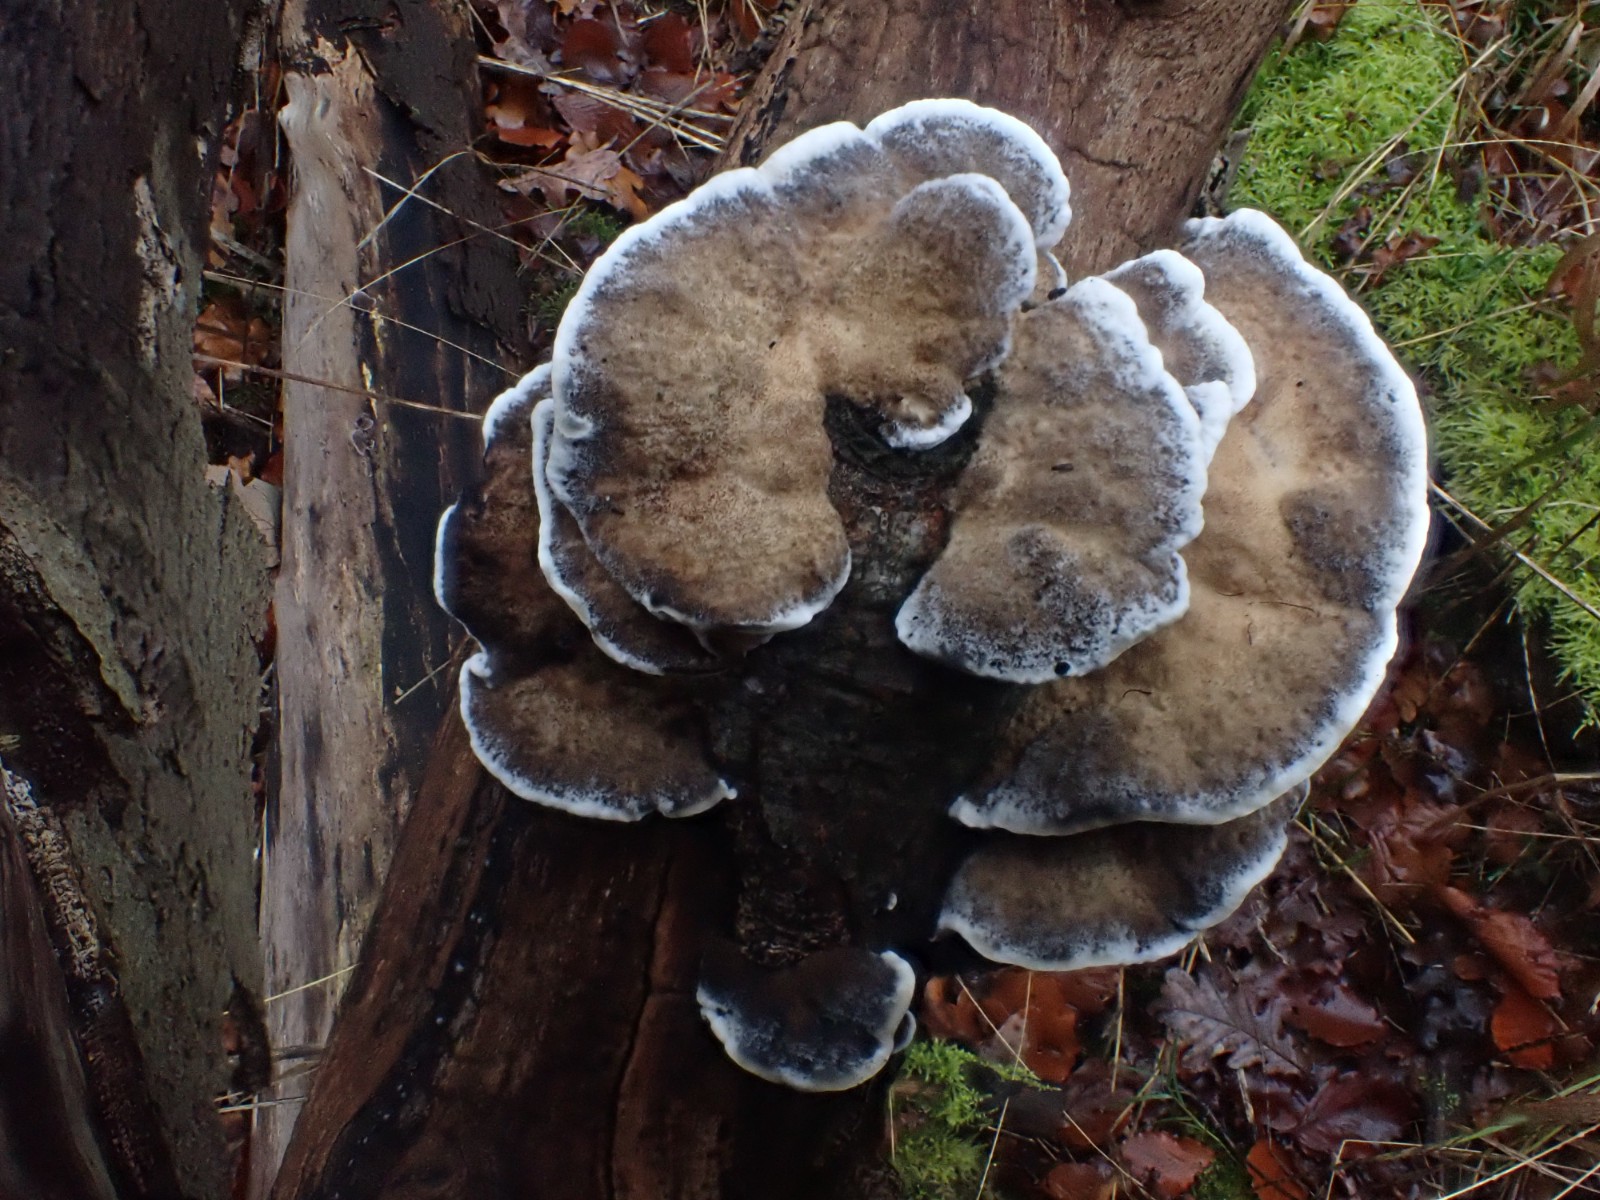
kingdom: Fungi
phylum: Basidiomycota
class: Agaricomycetes
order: Polyporales
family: Phanerochaetaceae
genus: Bjerkandera
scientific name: Bjerkandera adusta
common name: sveden sodporesvamp
